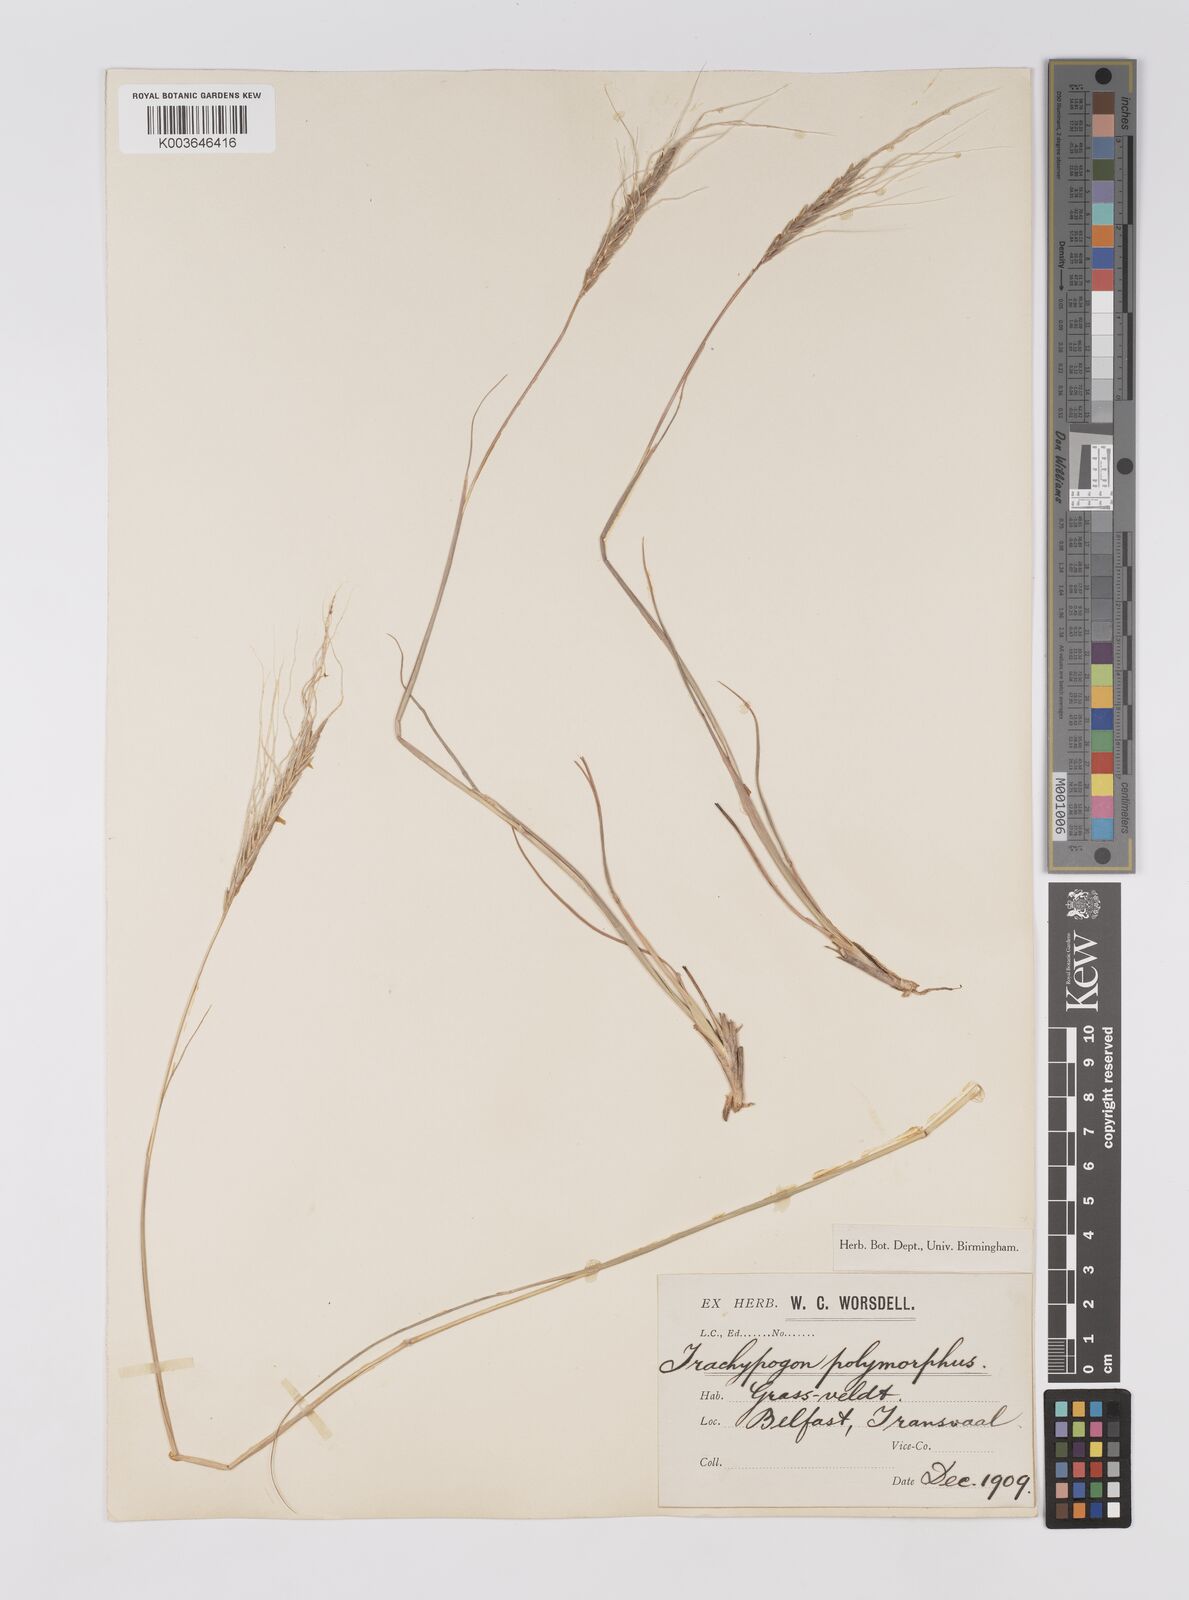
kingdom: Plantae
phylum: Tracheophyta
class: Liliopsida
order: Poales
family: Poaceae
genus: Trachypogon
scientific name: Trachypogon spicatus
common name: Crinkle-awn
